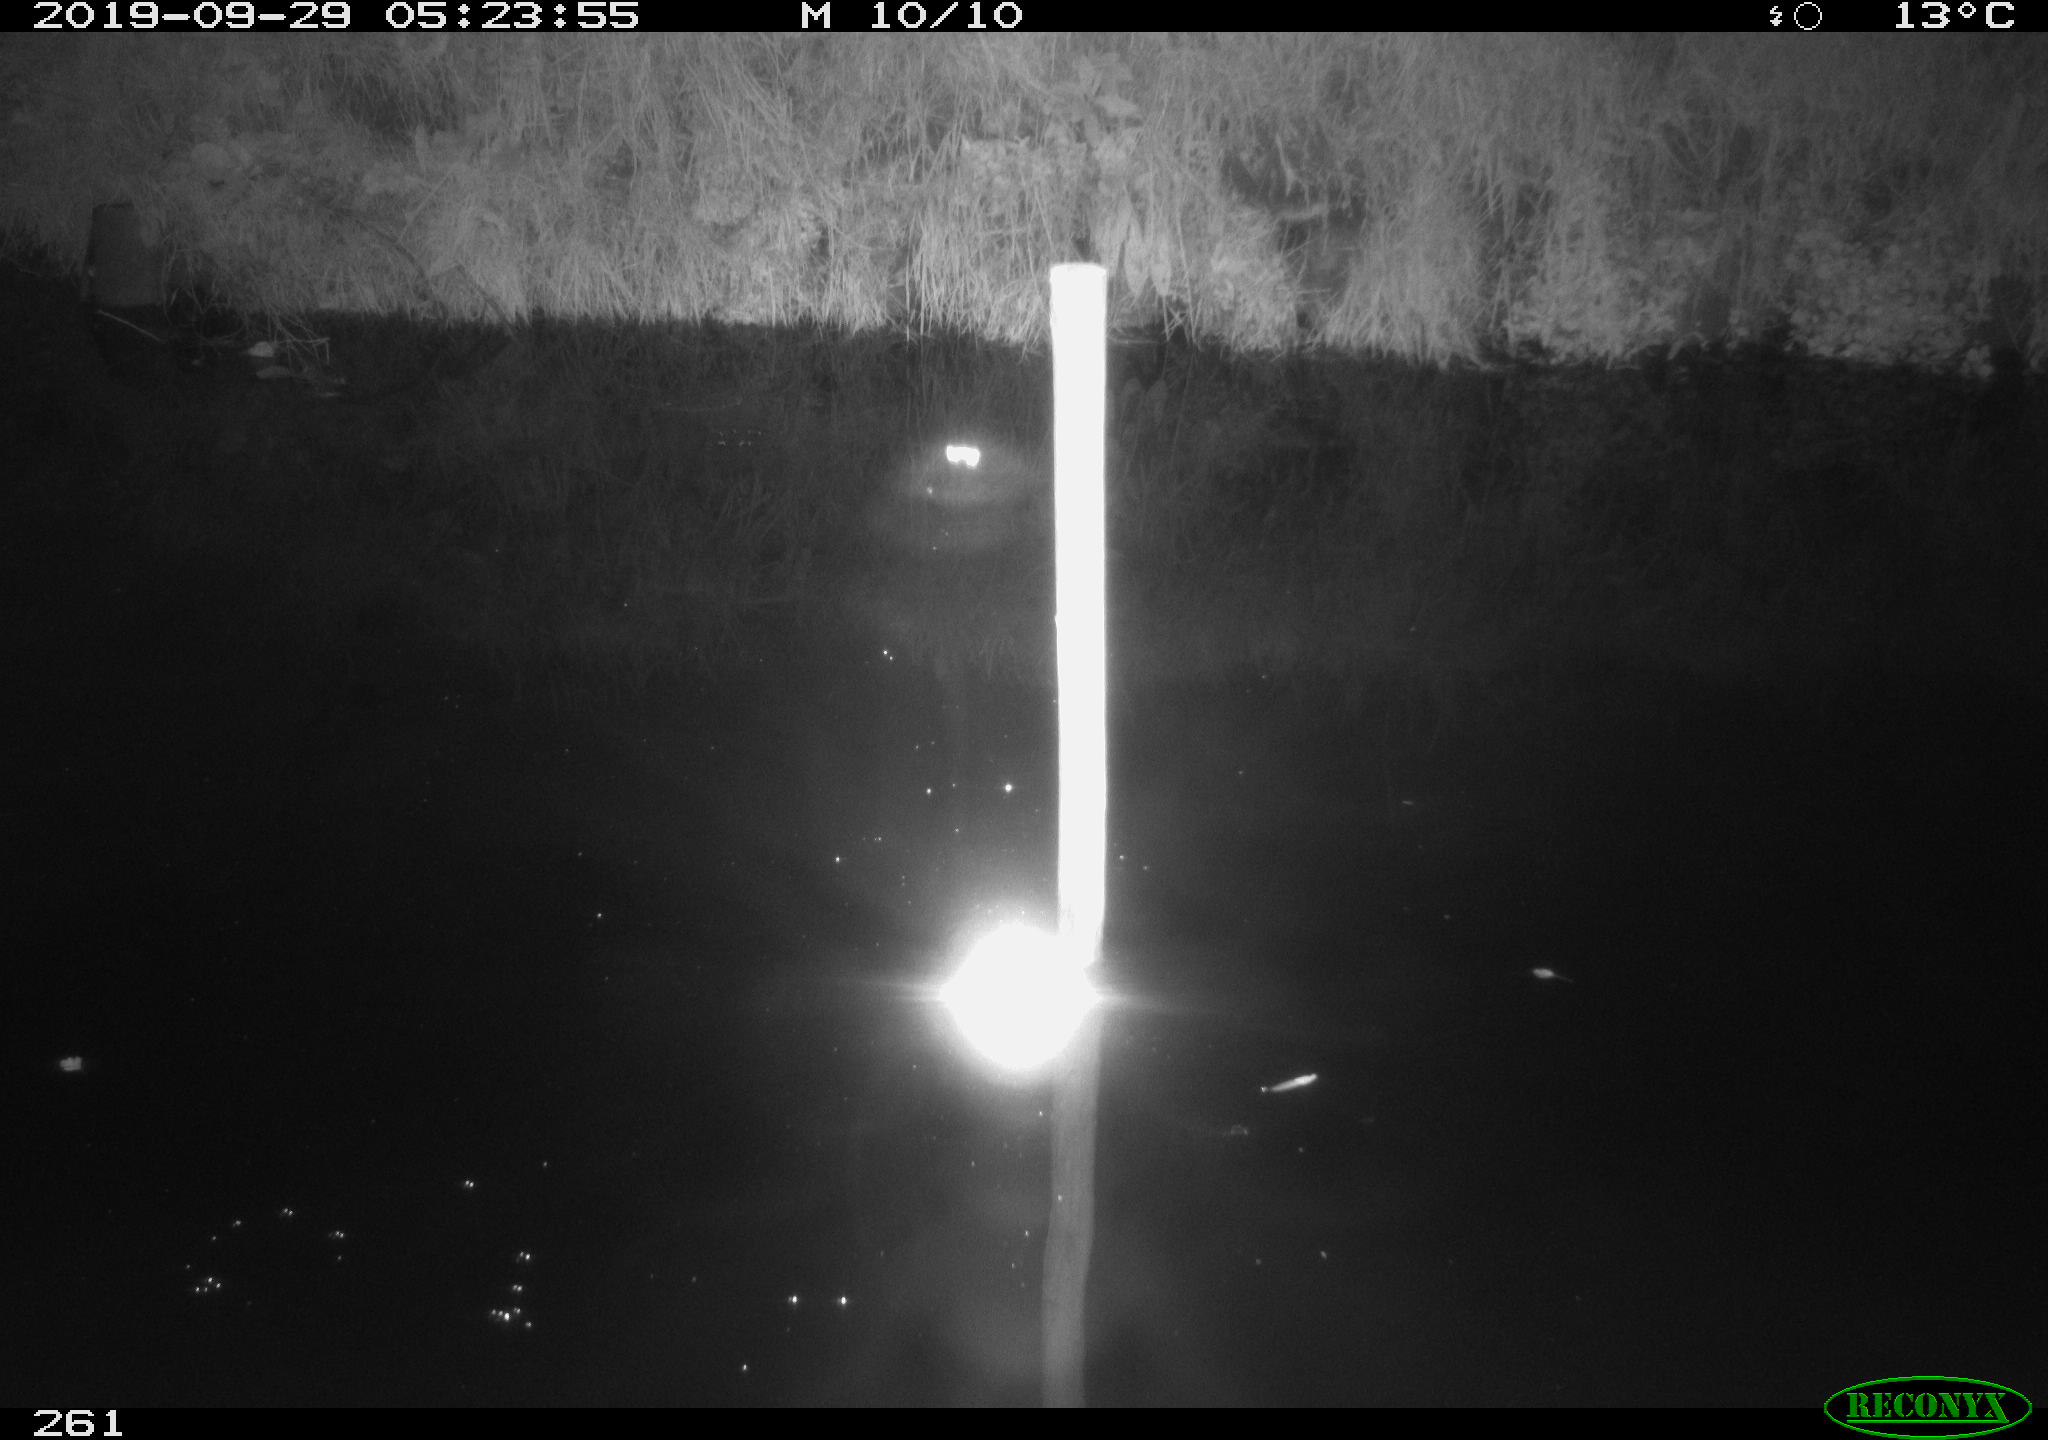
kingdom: Animalia
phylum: Chordata
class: Aves
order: Anseriformes
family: Anatidae
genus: Anas
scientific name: Anas platyrhynchos
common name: Mallard
